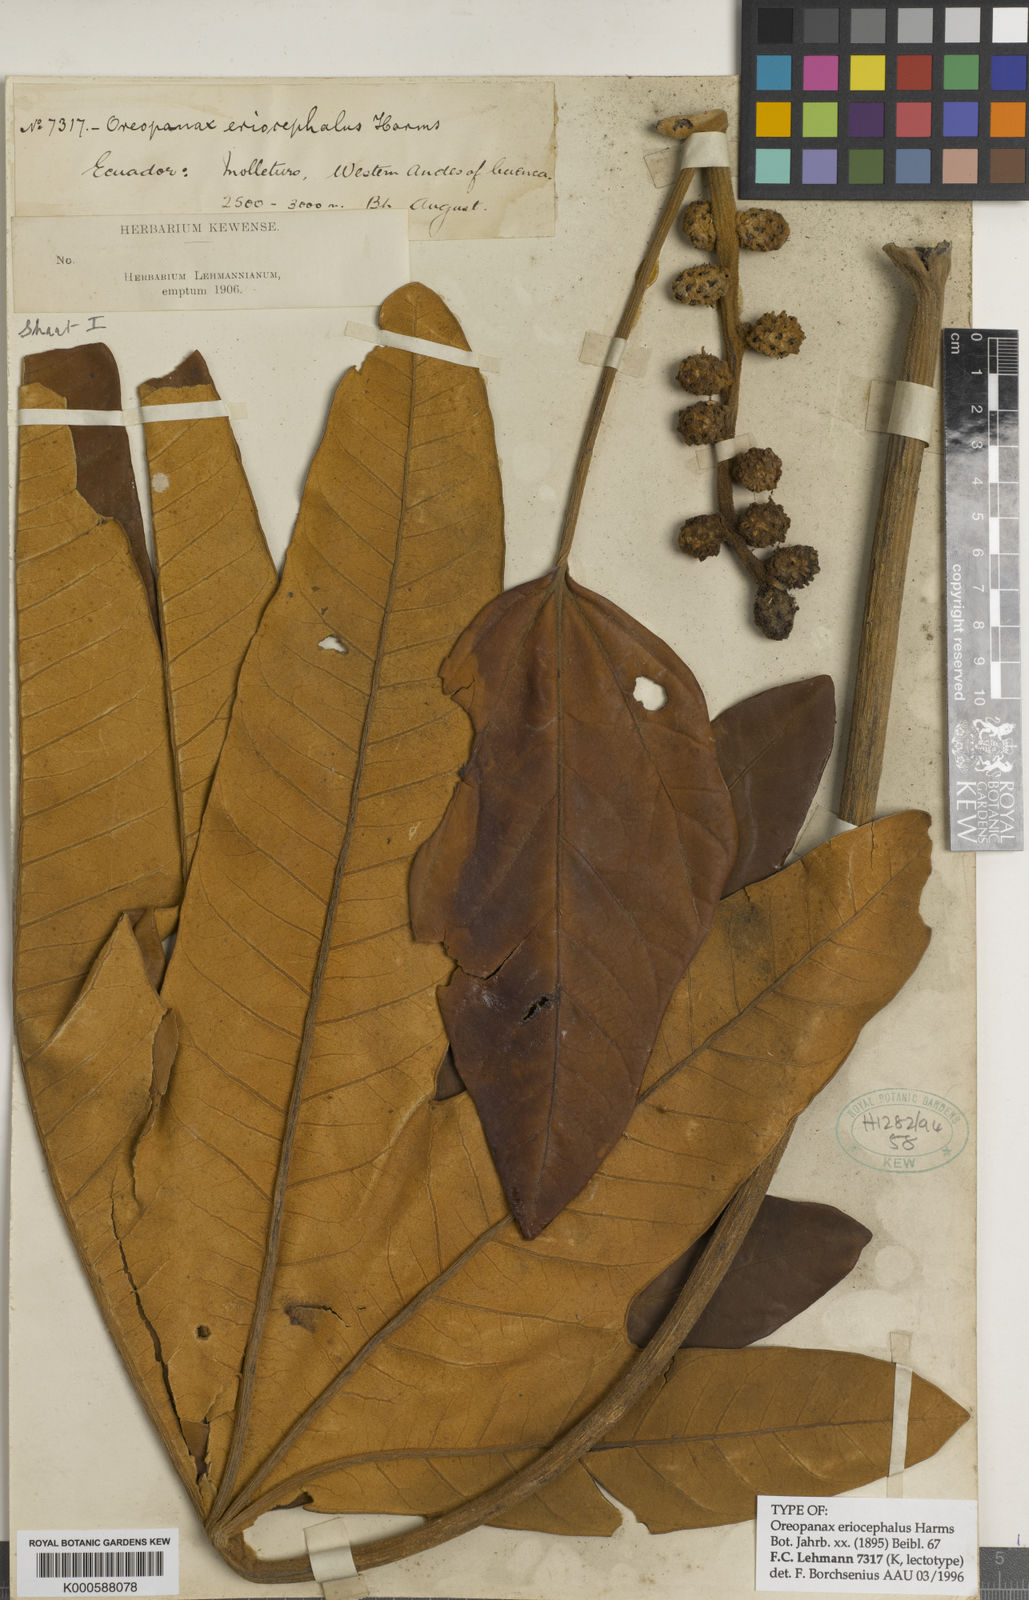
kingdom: Plantae
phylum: Tracheophyta
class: Magnoliopsida
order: Apiales
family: Araliaceae
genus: Oreopanax
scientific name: Oreopanax eriocephalus
